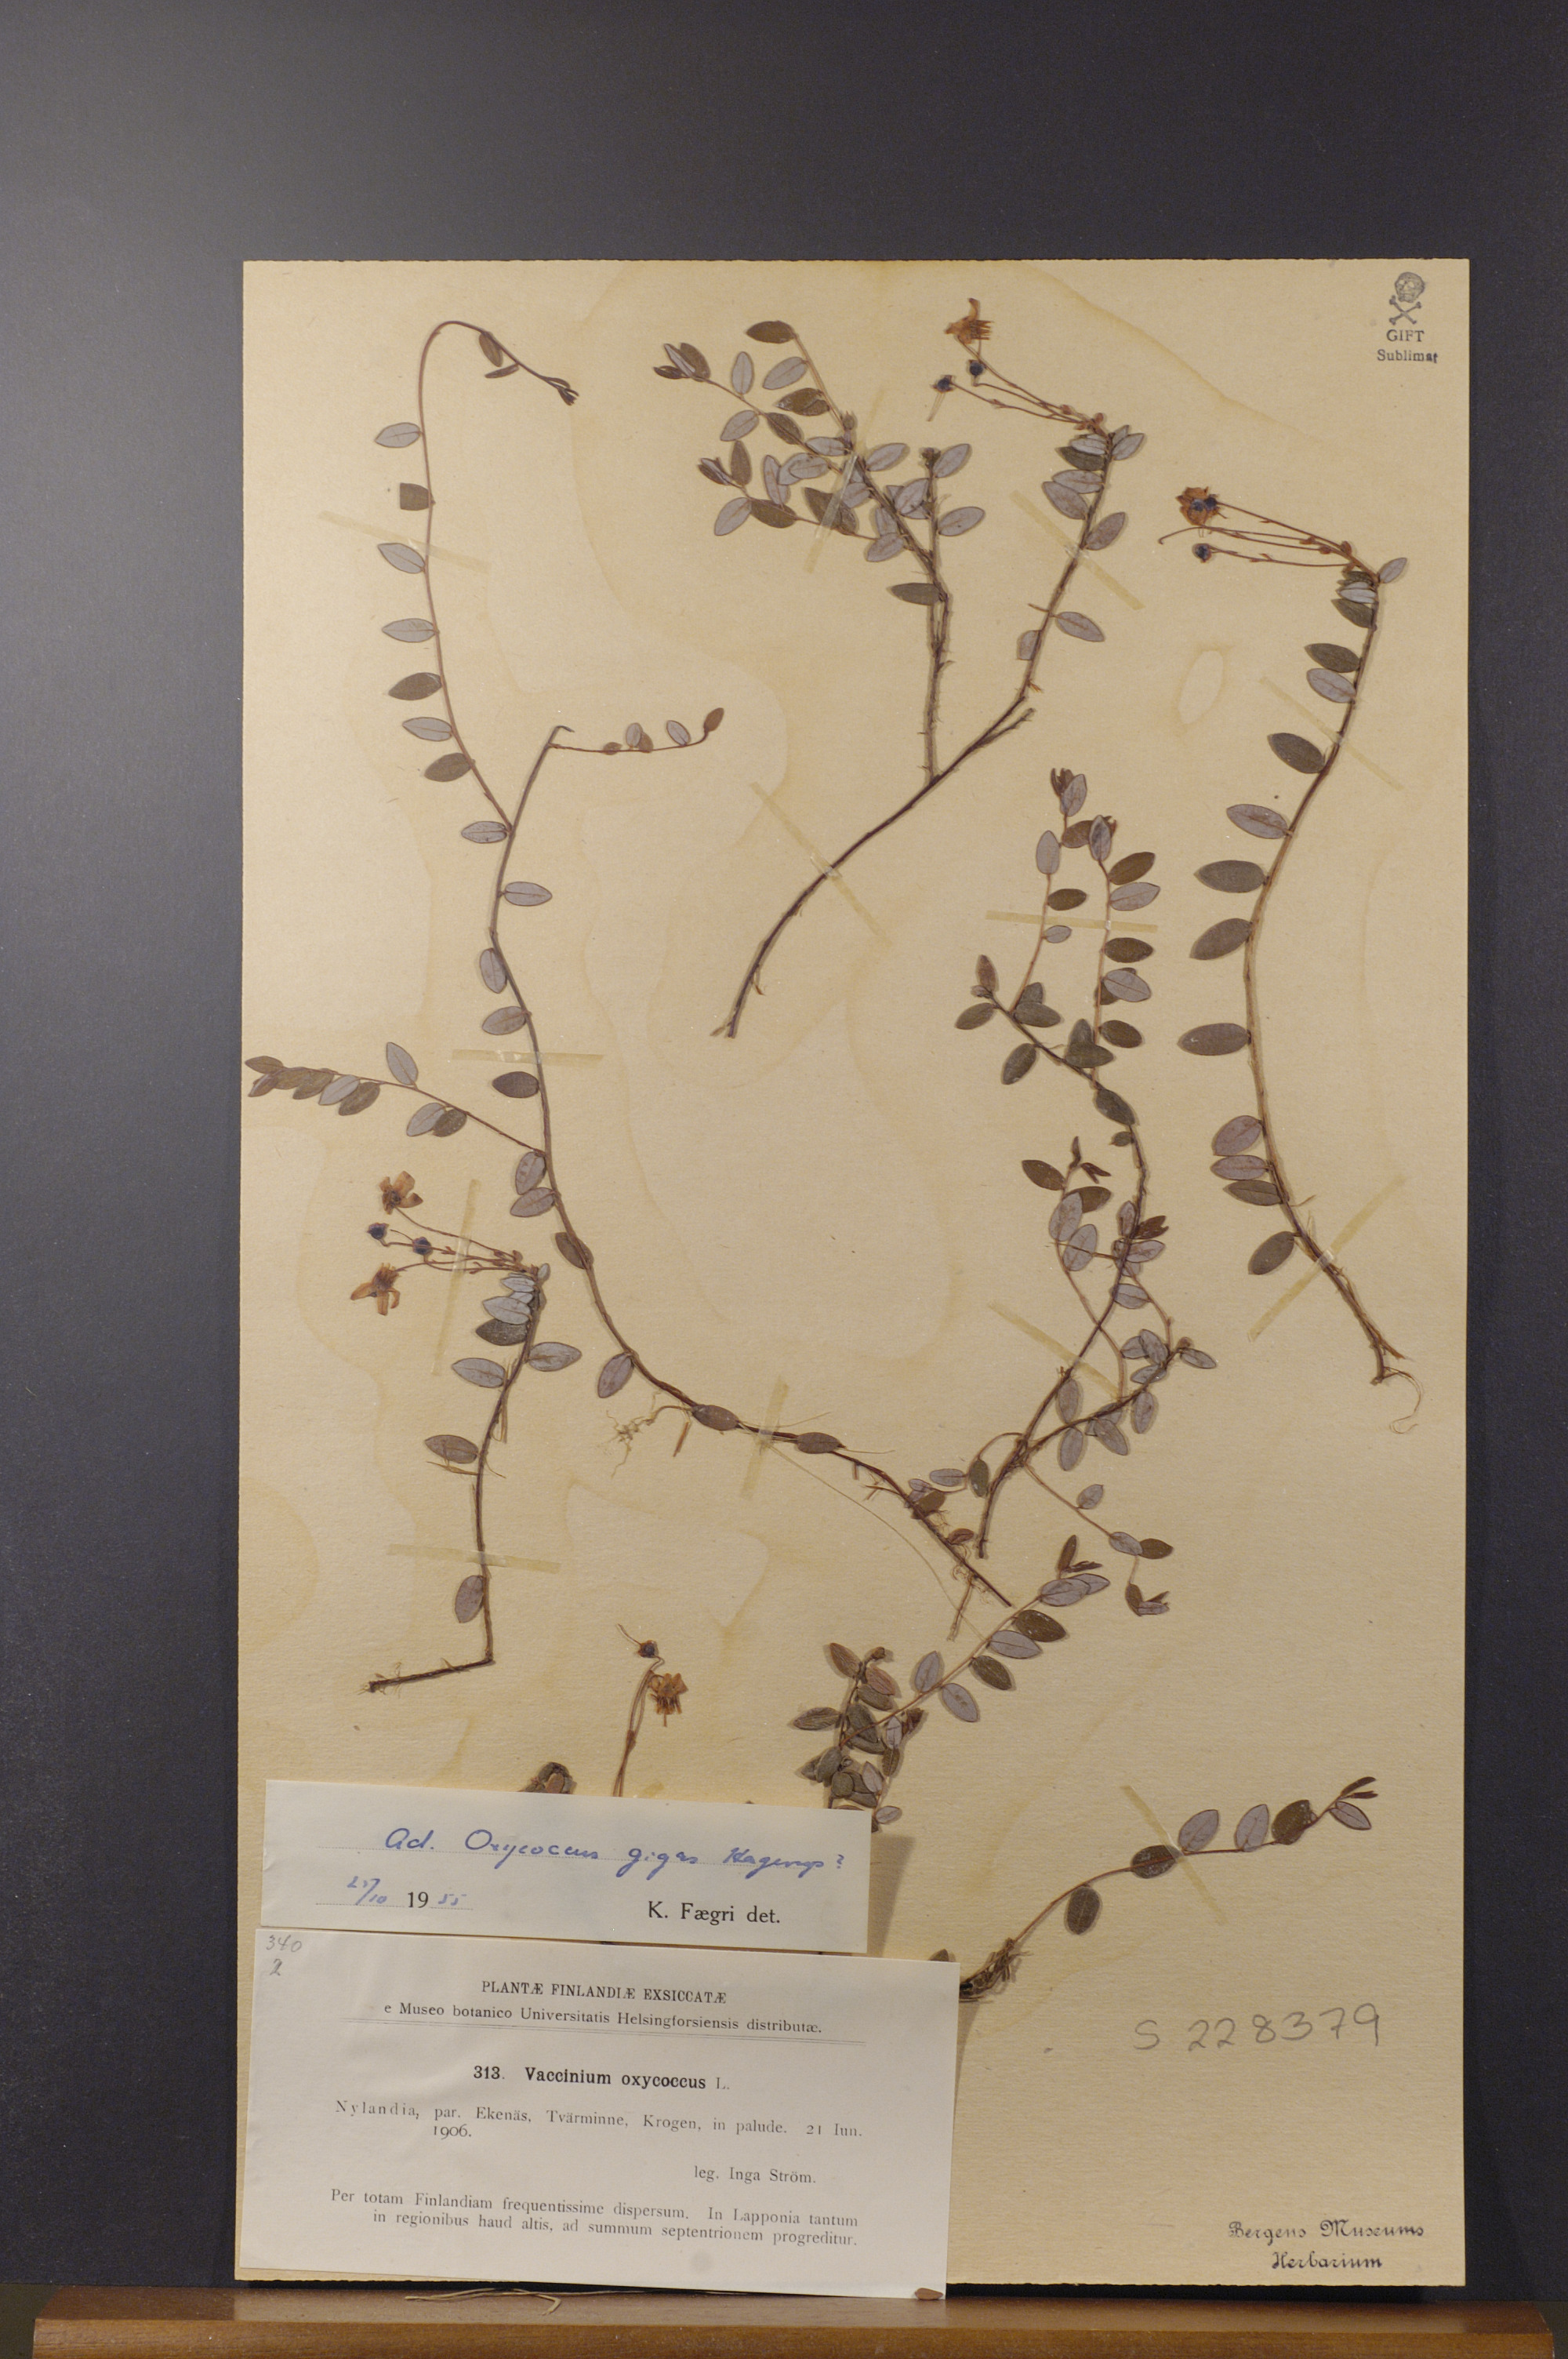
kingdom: Plantae
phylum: Tracheophyta
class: Magnoliopsida
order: Ericales
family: Ericaceae
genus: Oxycoccus
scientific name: Oxycoccus
